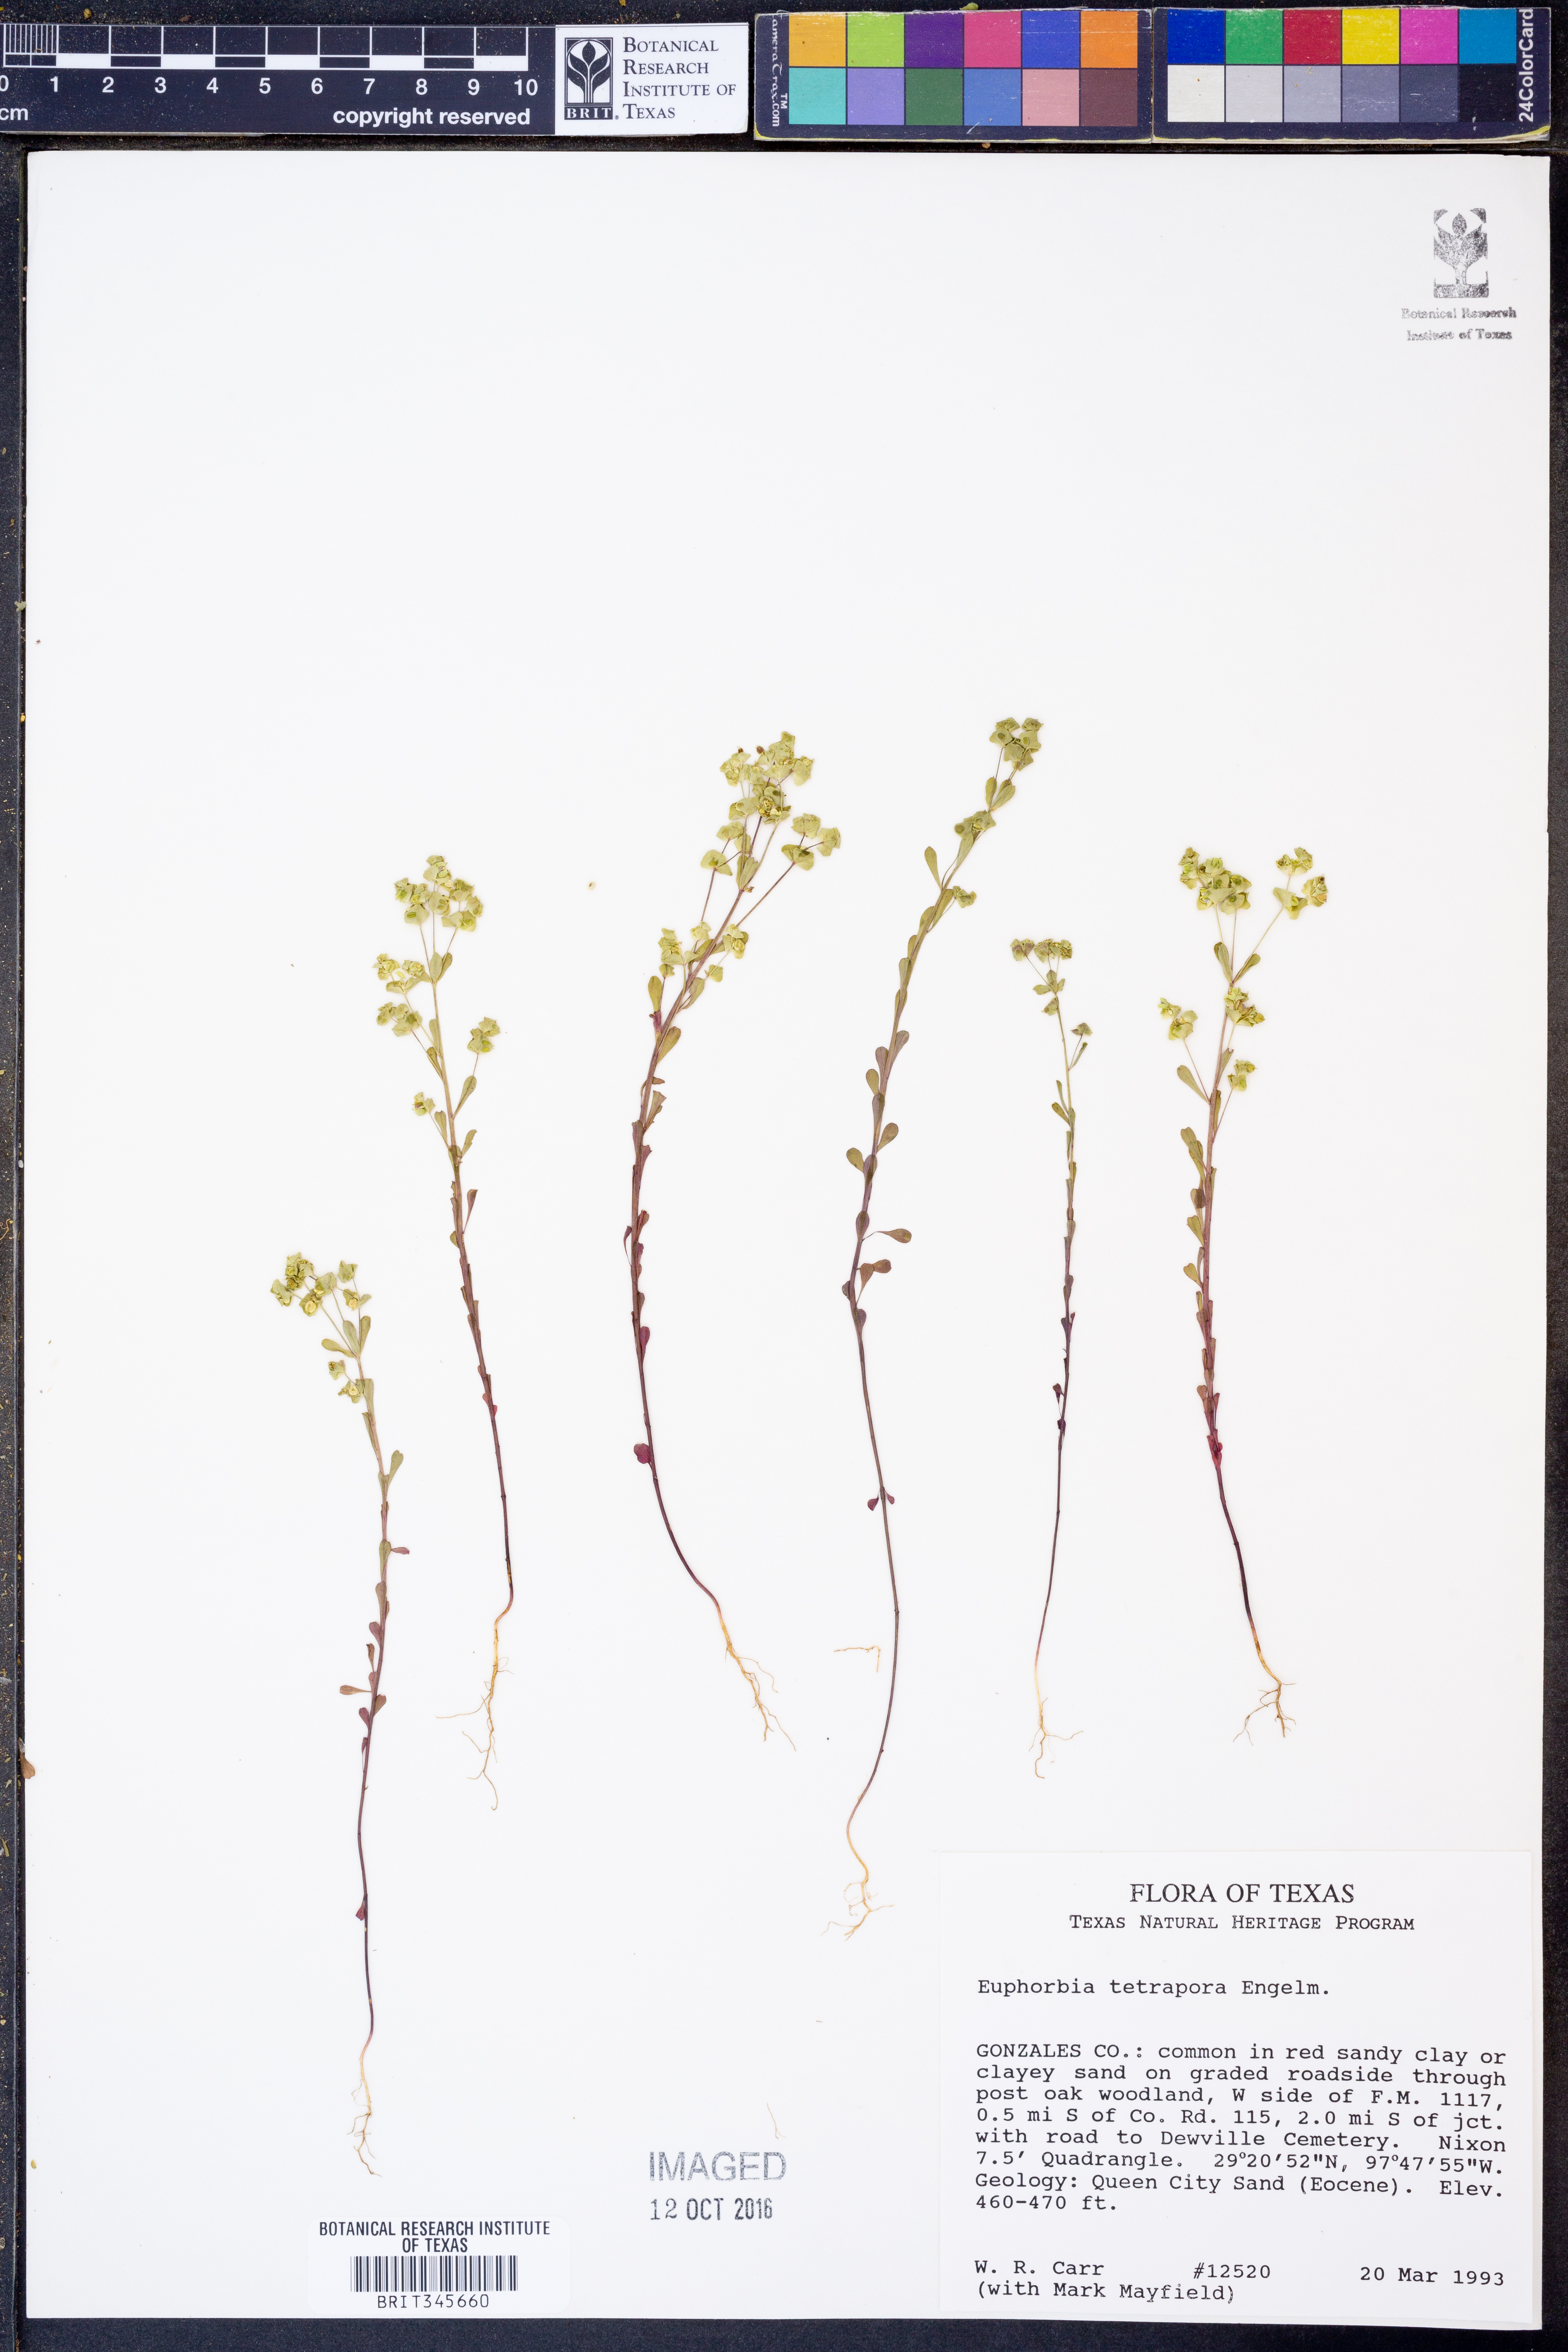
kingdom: Plantae
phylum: Tracheophyta
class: Magnoliopsida
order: Malpighiales
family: Euphorbiaceae
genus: Euphorbia
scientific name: Euphorbia tetrapora
